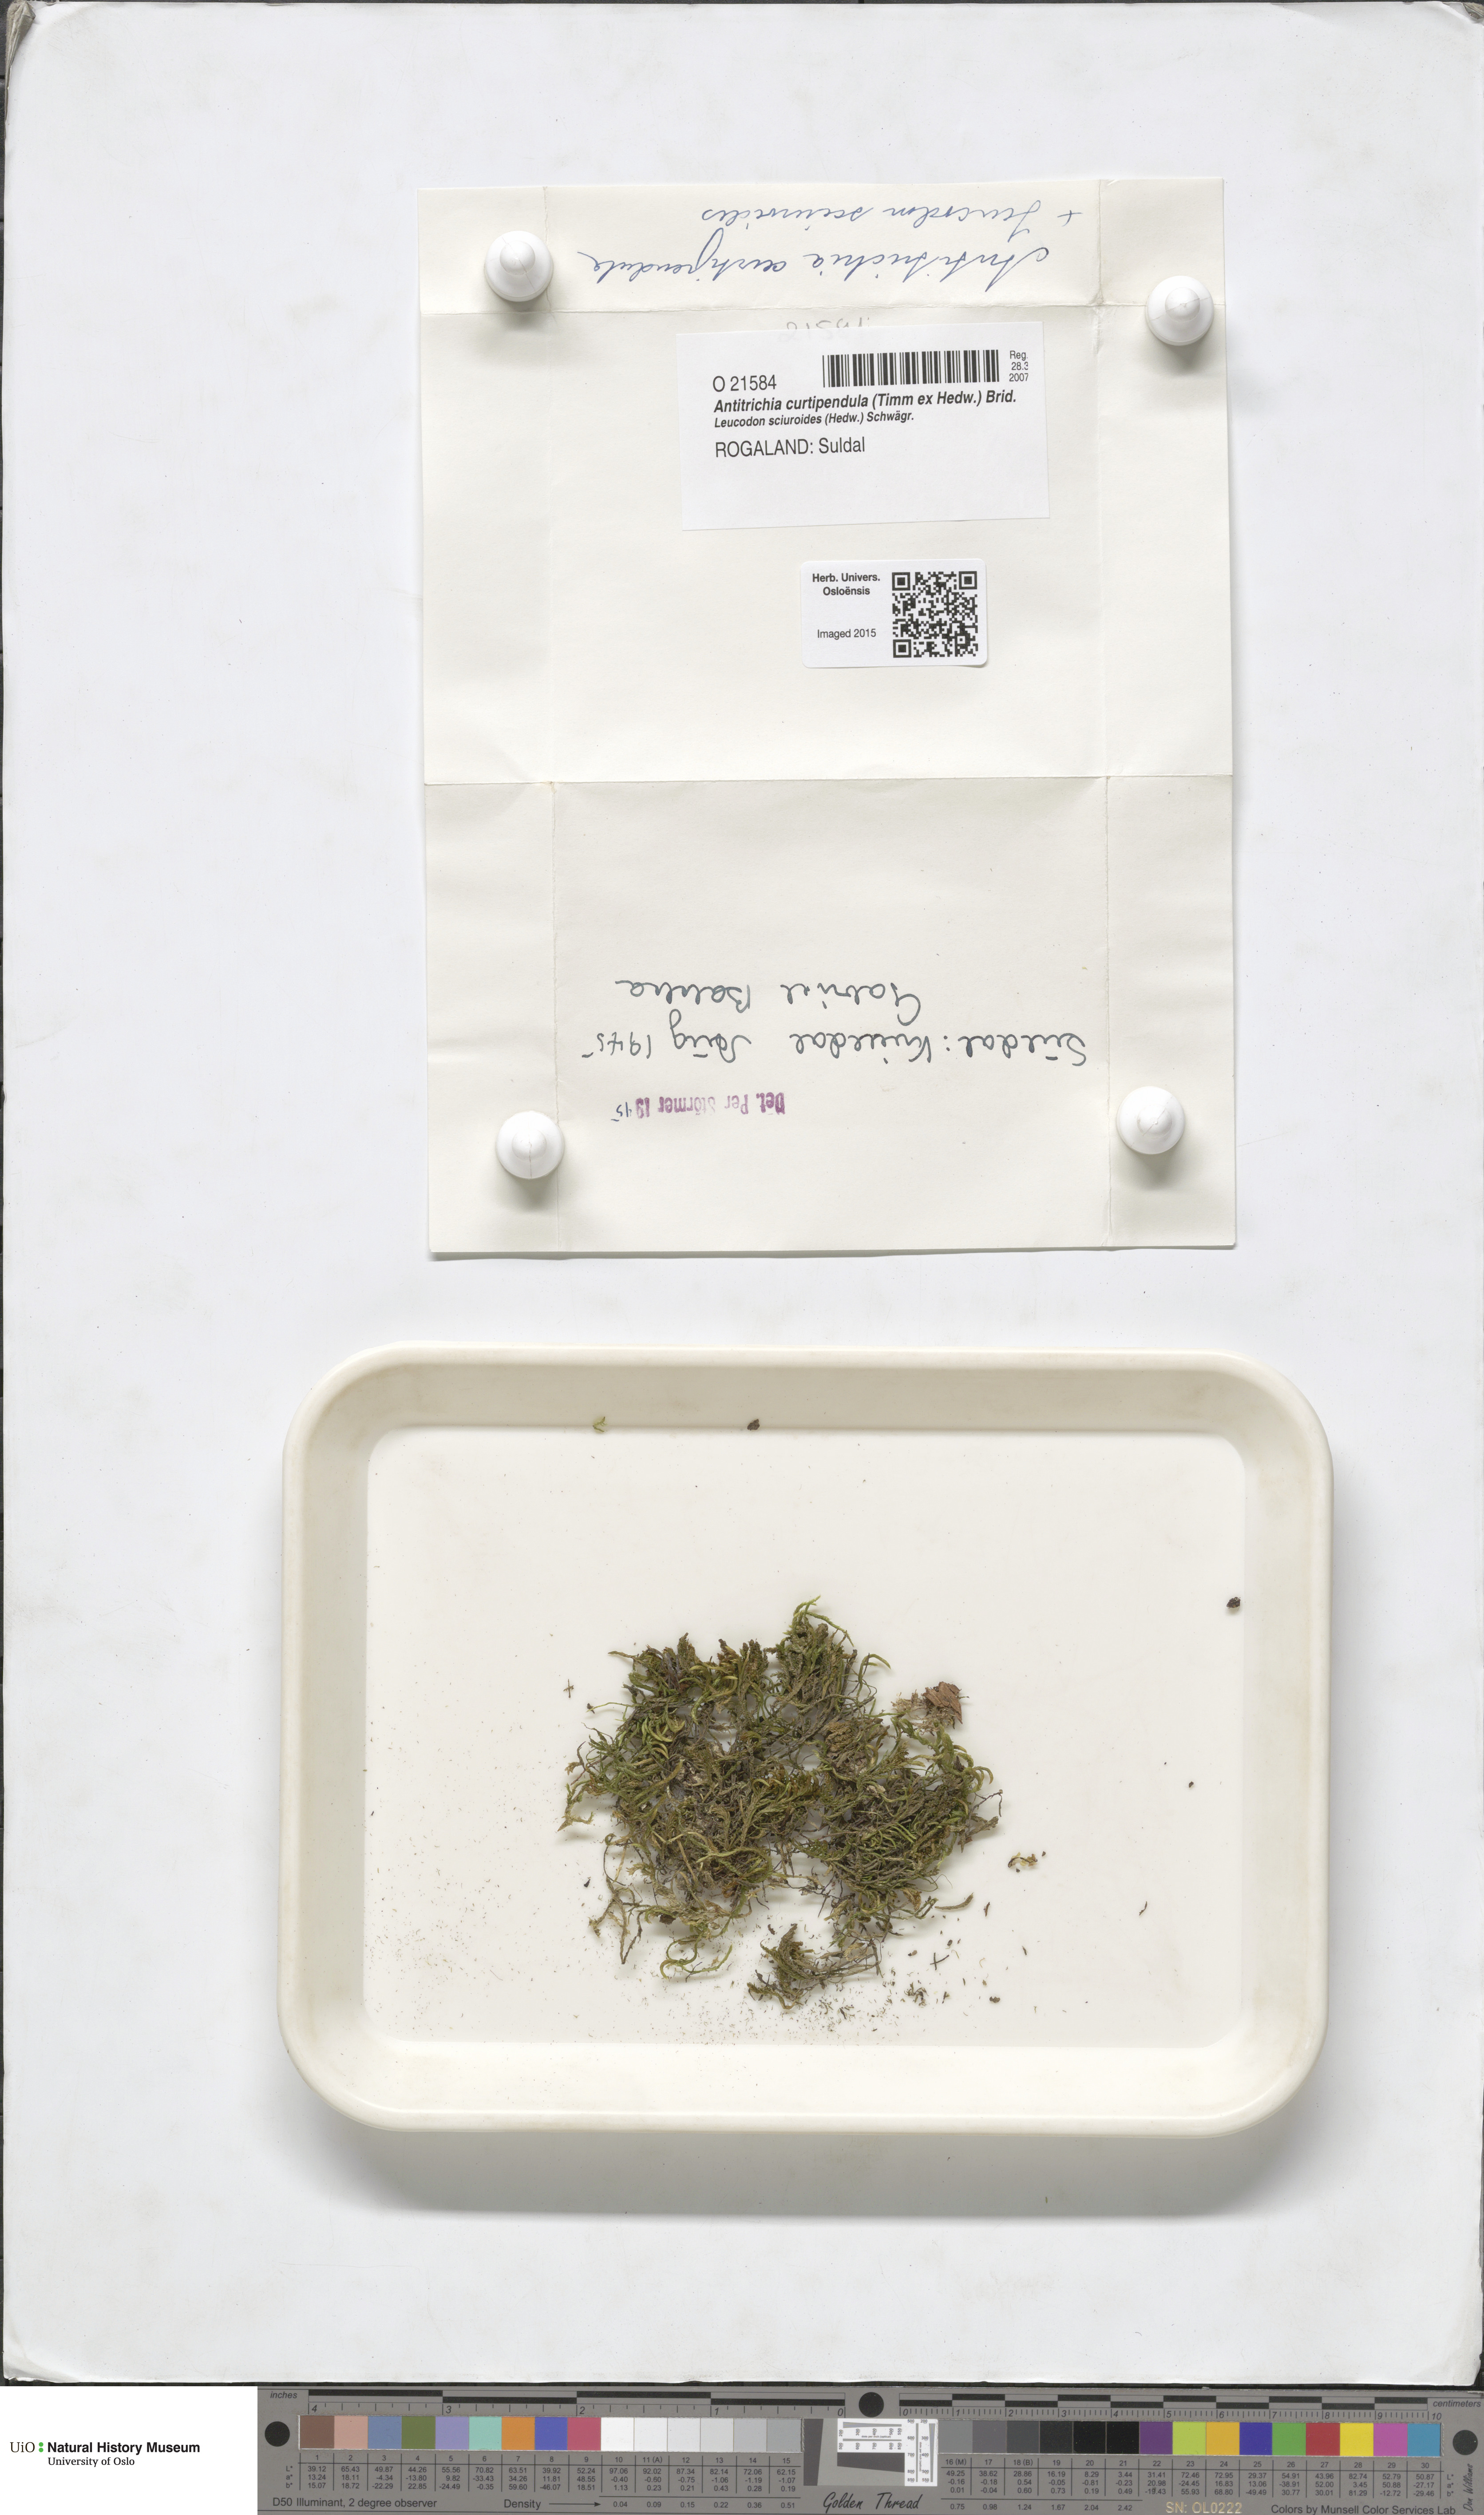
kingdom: Plantae
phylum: Bryophyta
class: Bryopsida
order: Hypnales
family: Antitrichiaceae
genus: Antitrichia
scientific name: Antitrichia curtipendula
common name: Pendulous wing-moss
